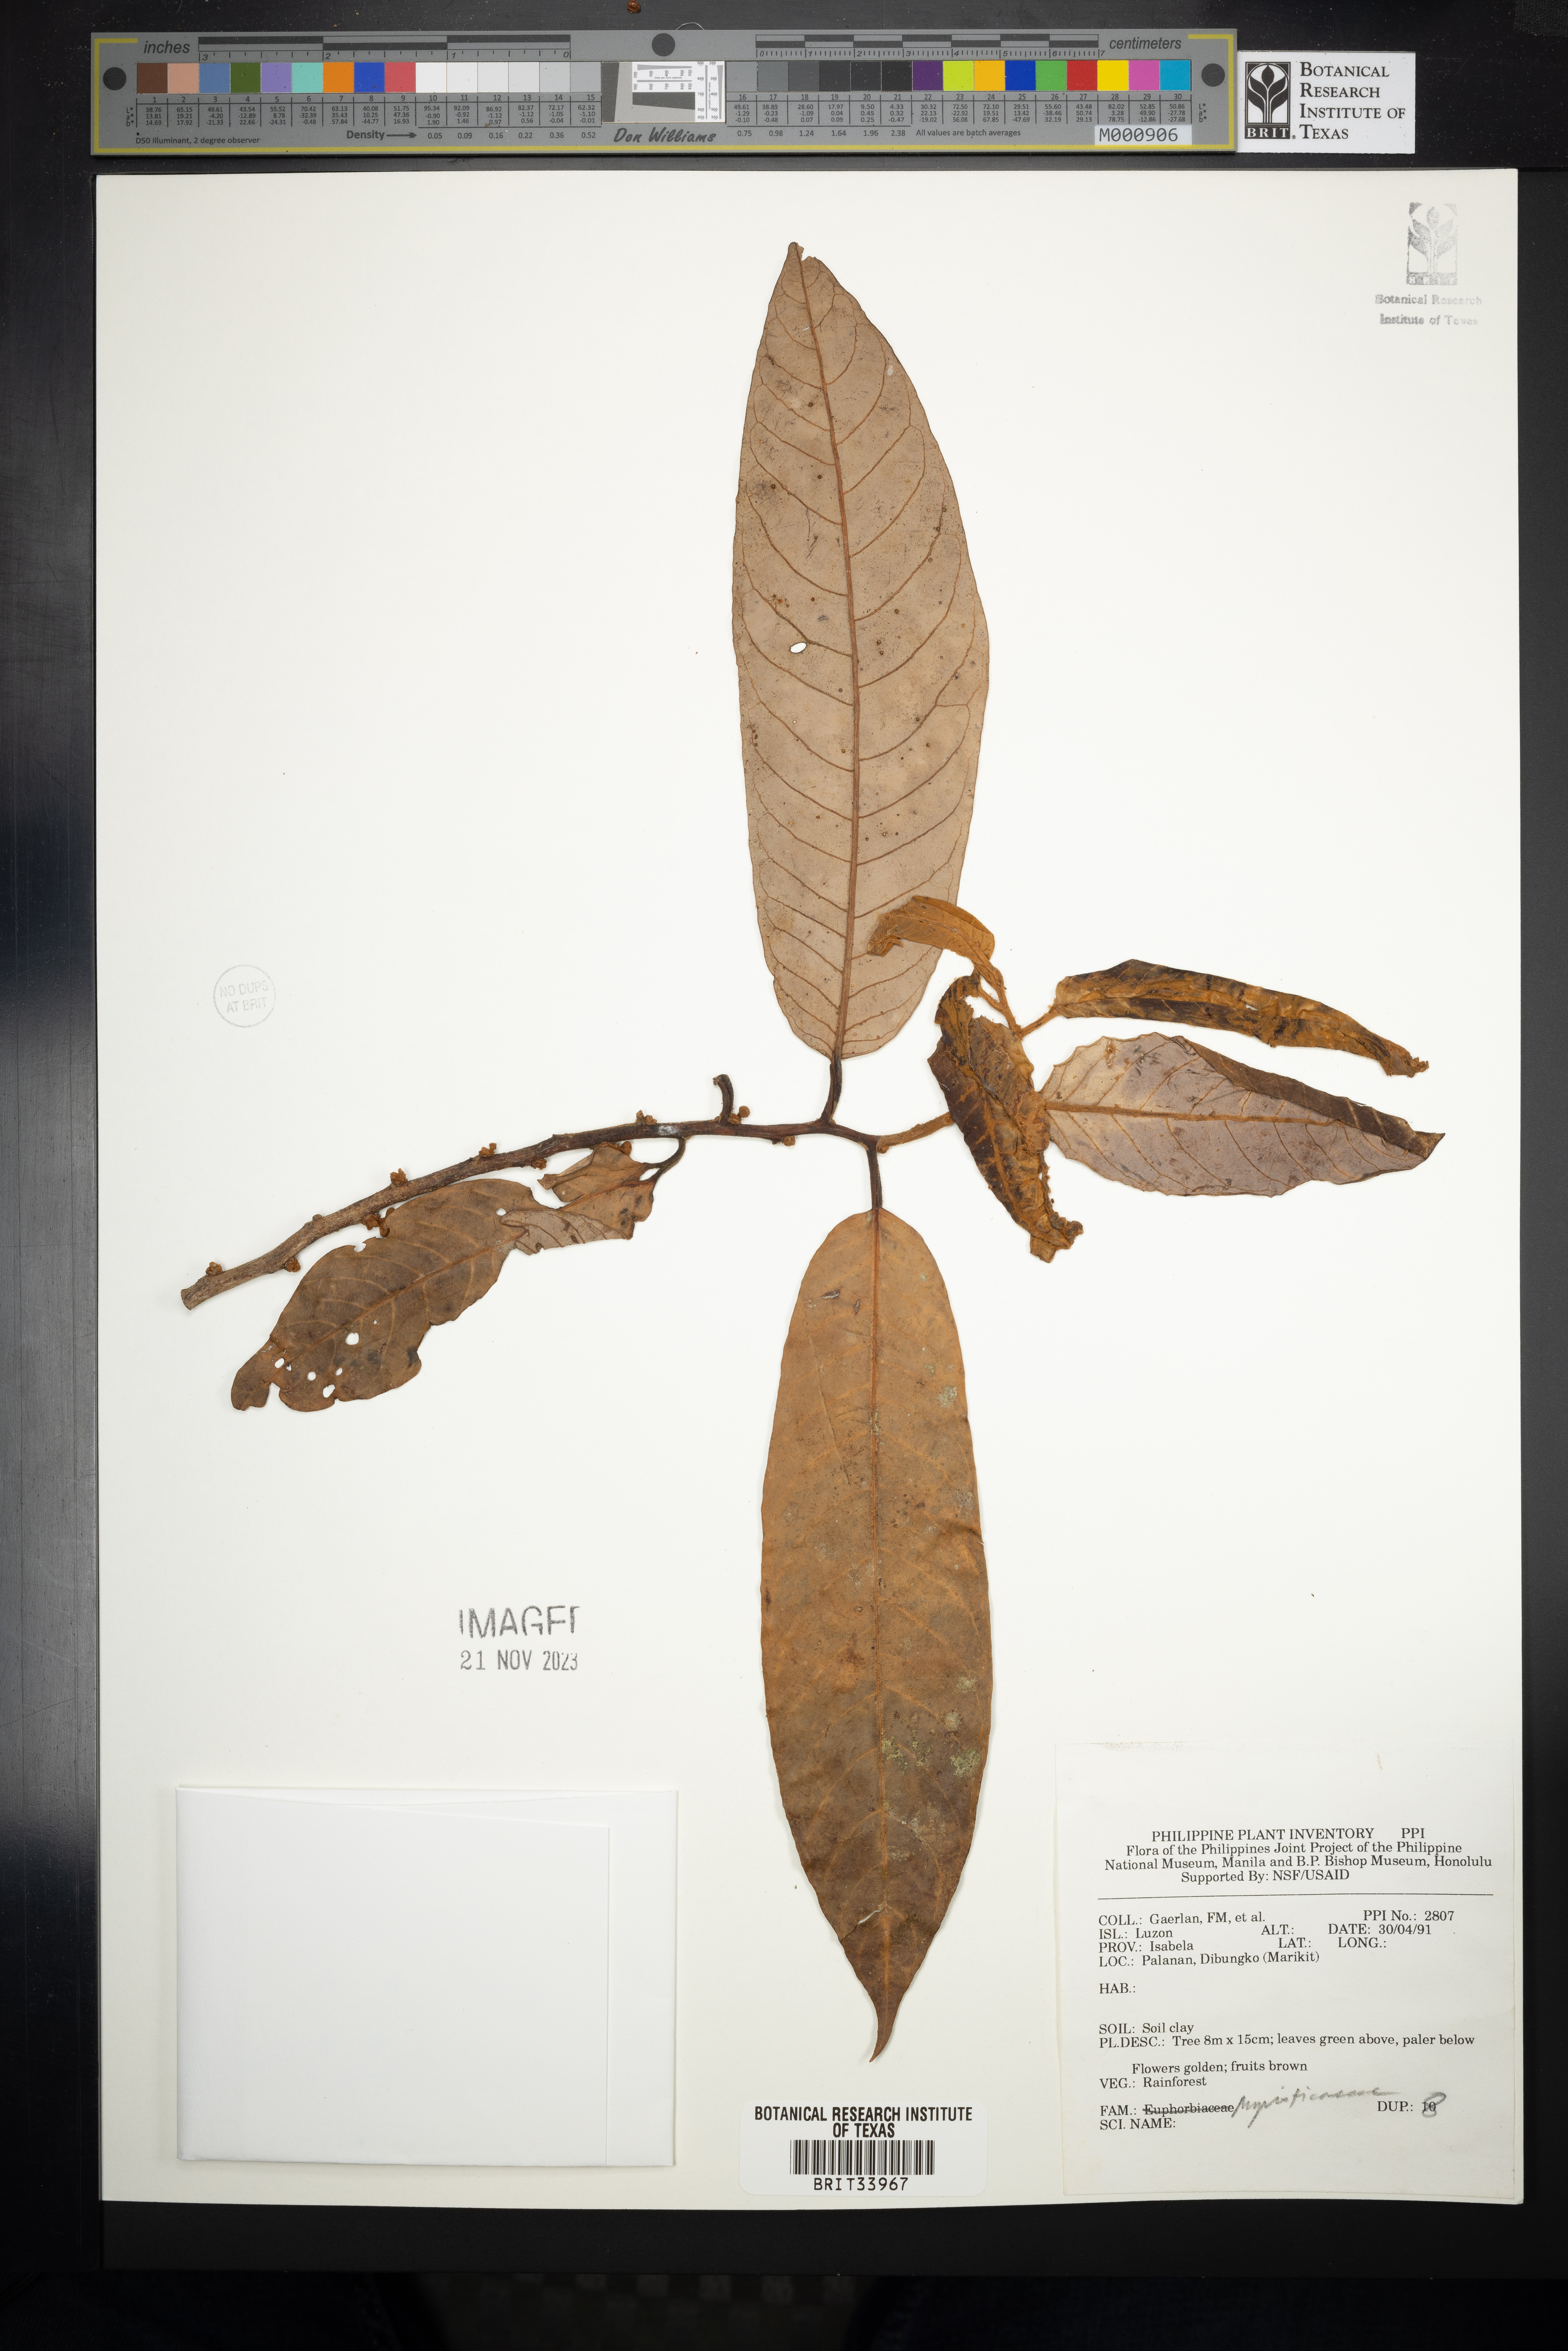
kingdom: Plantae
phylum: Tracheophyta
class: Magnoliopsida
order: Magnoliales
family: Myristicaceae
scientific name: Myristicaceae
